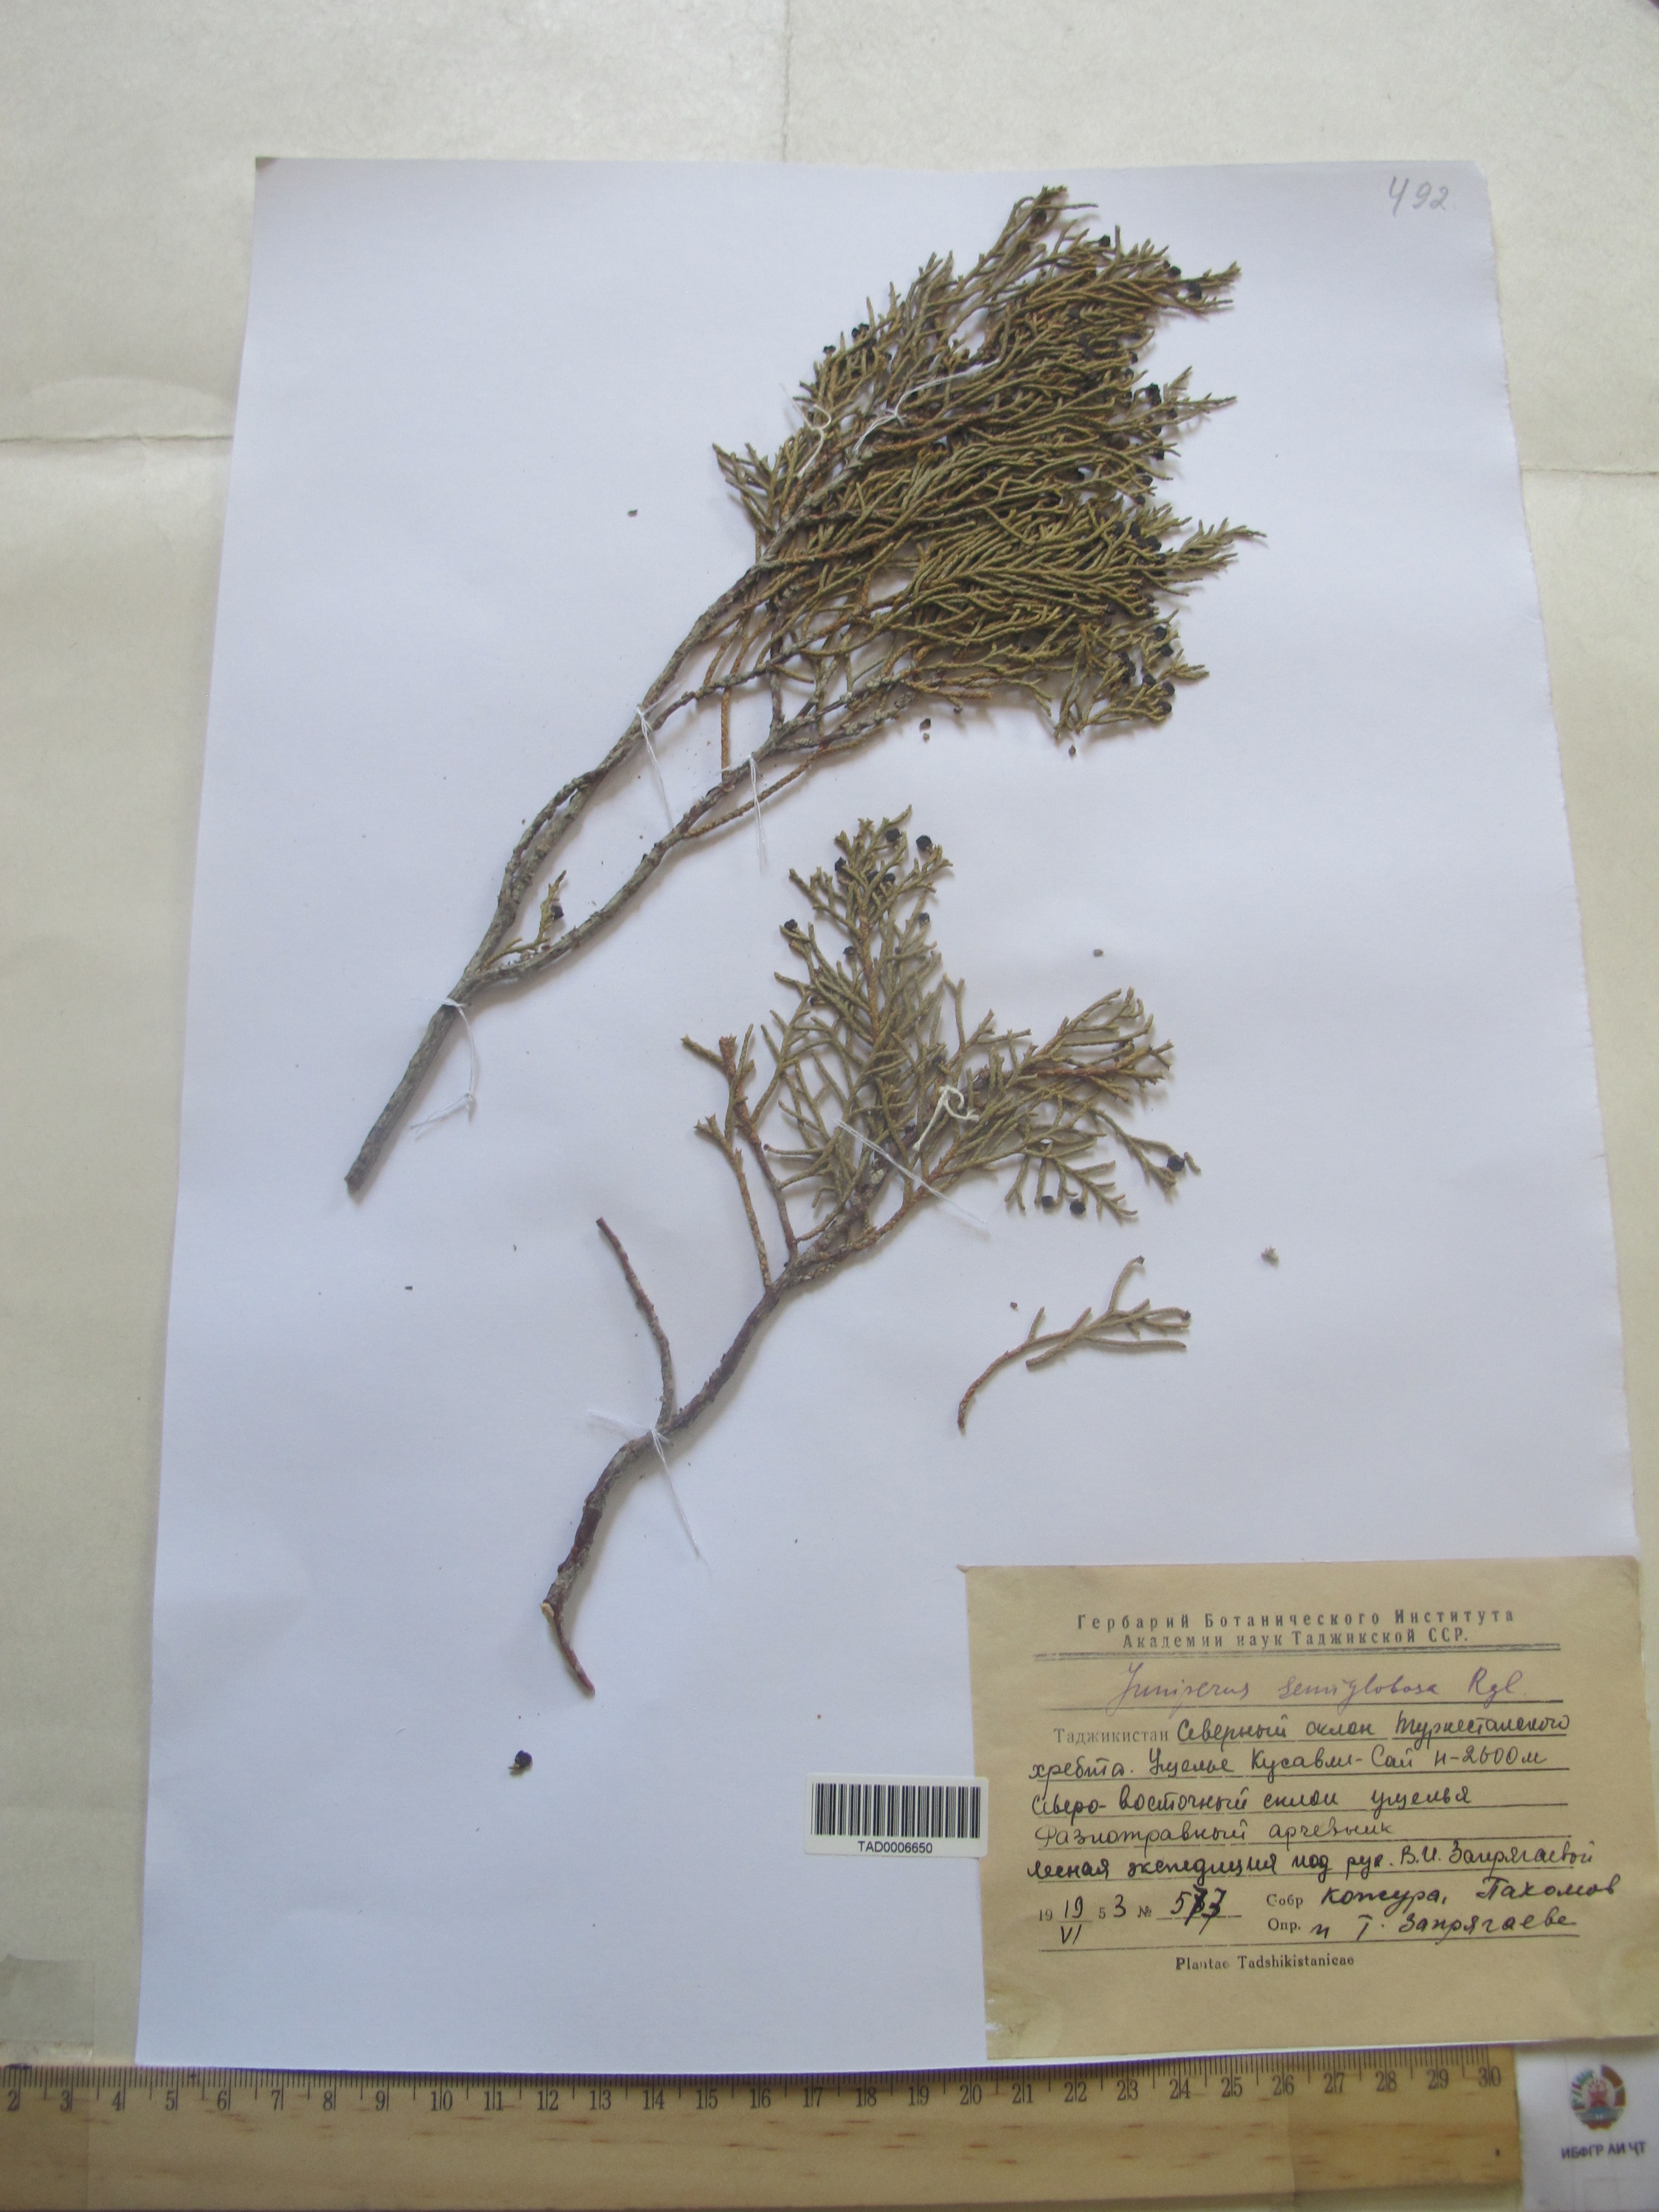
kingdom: Plantae
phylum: Tracheophyta
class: Pinopsida
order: Pinales
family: Cupressaceae
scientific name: Cupressaceae
